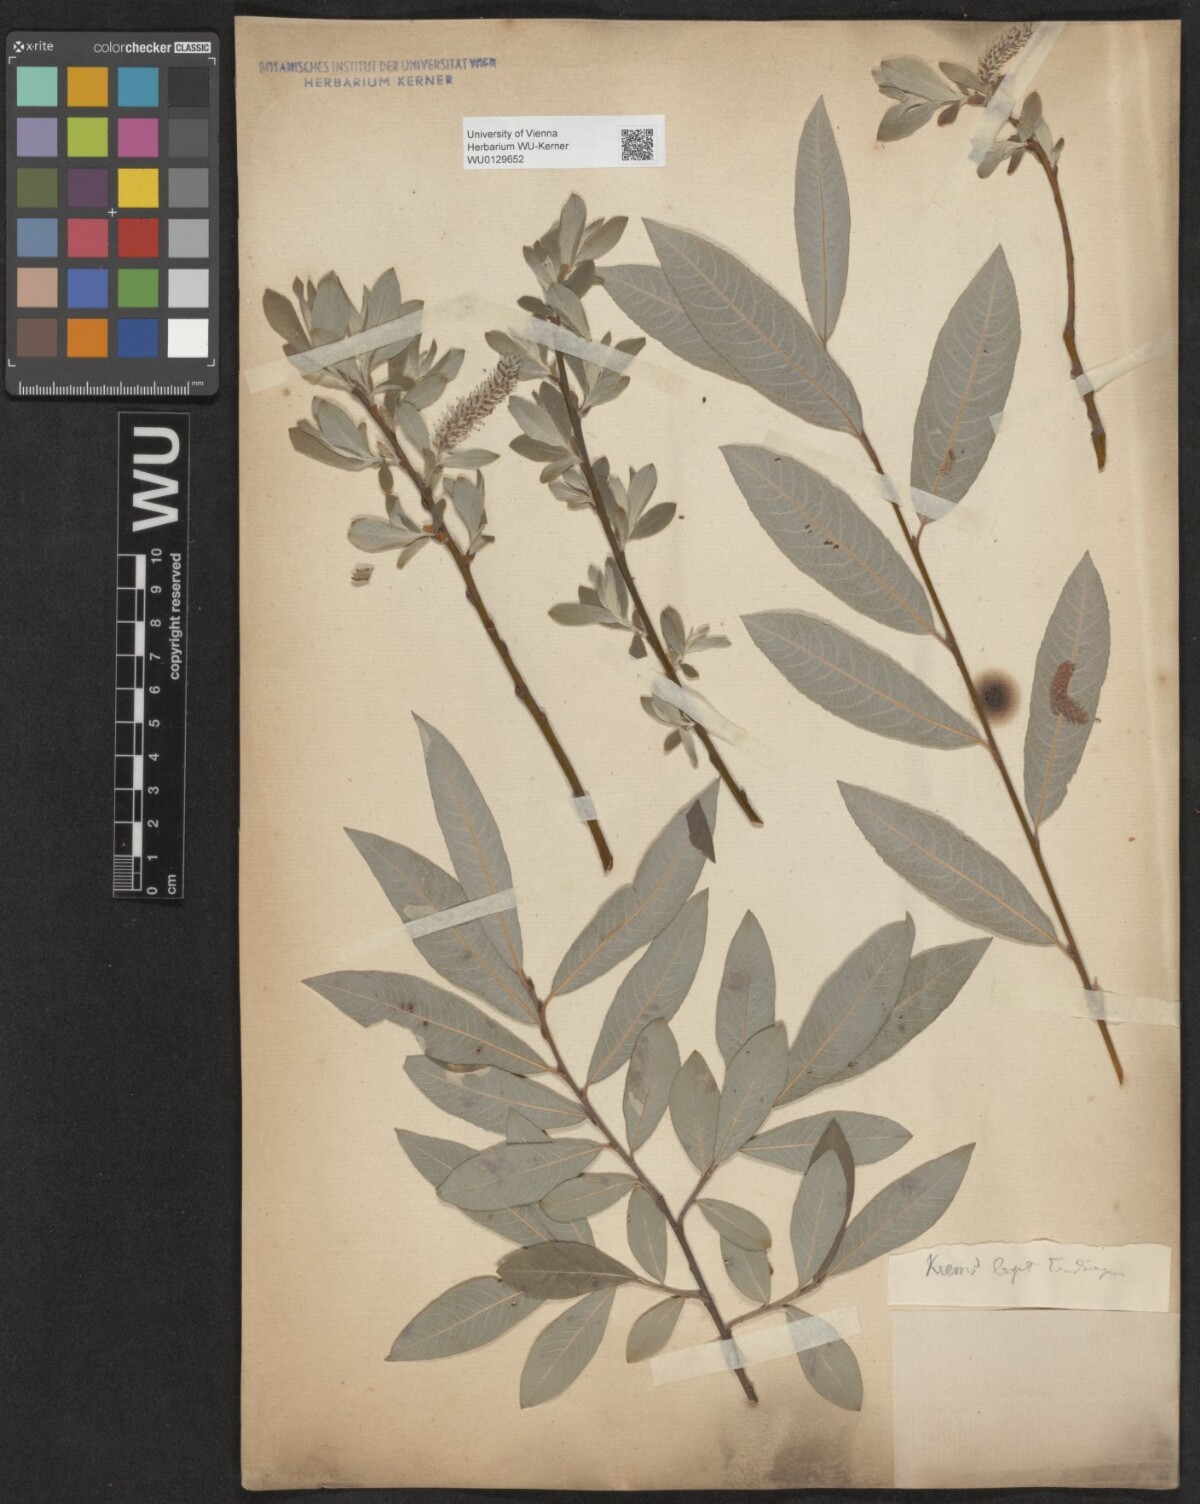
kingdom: Plantae
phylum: Tracheophyta
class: Magnoliopsida
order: Malpighiales
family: Salicaceae
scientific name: Salicaceae
